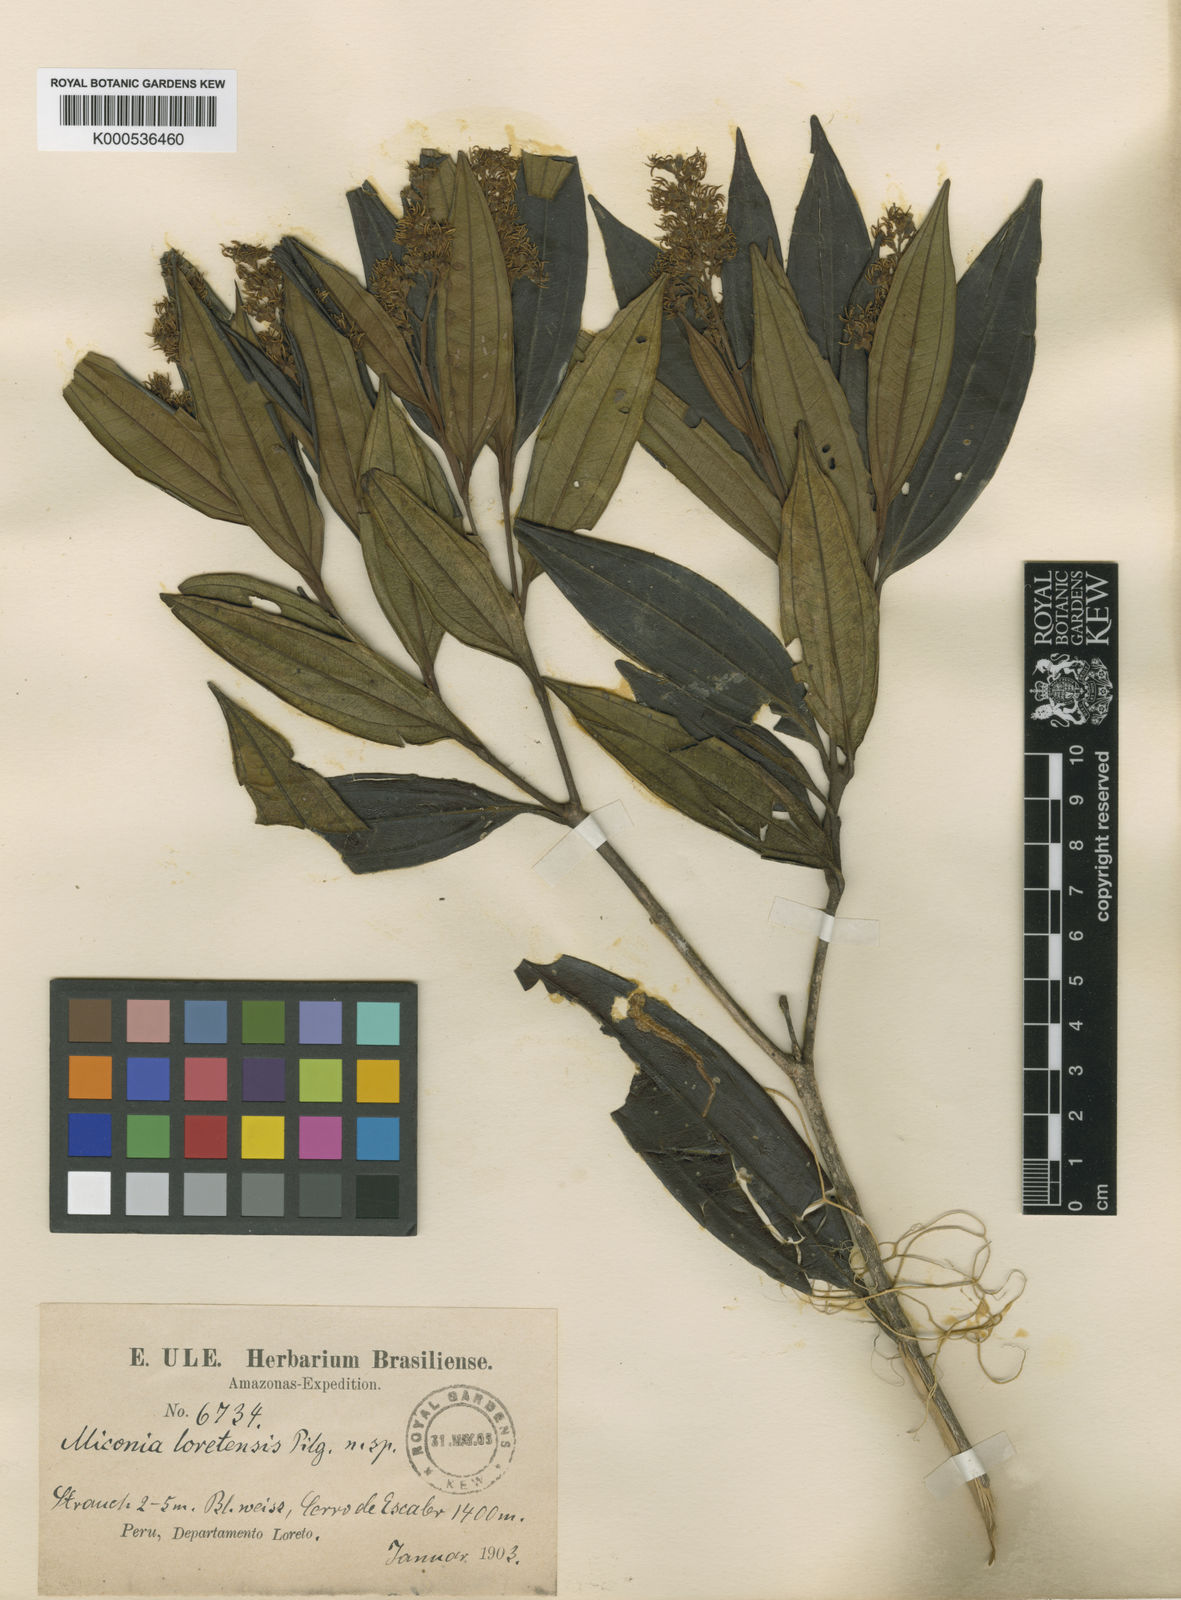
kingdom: Plantae
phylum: Tracheophyta
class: Magnoliopsida
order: Myrtales
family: Melastomataceae
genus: Miconia
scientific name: Miconia loretensis
